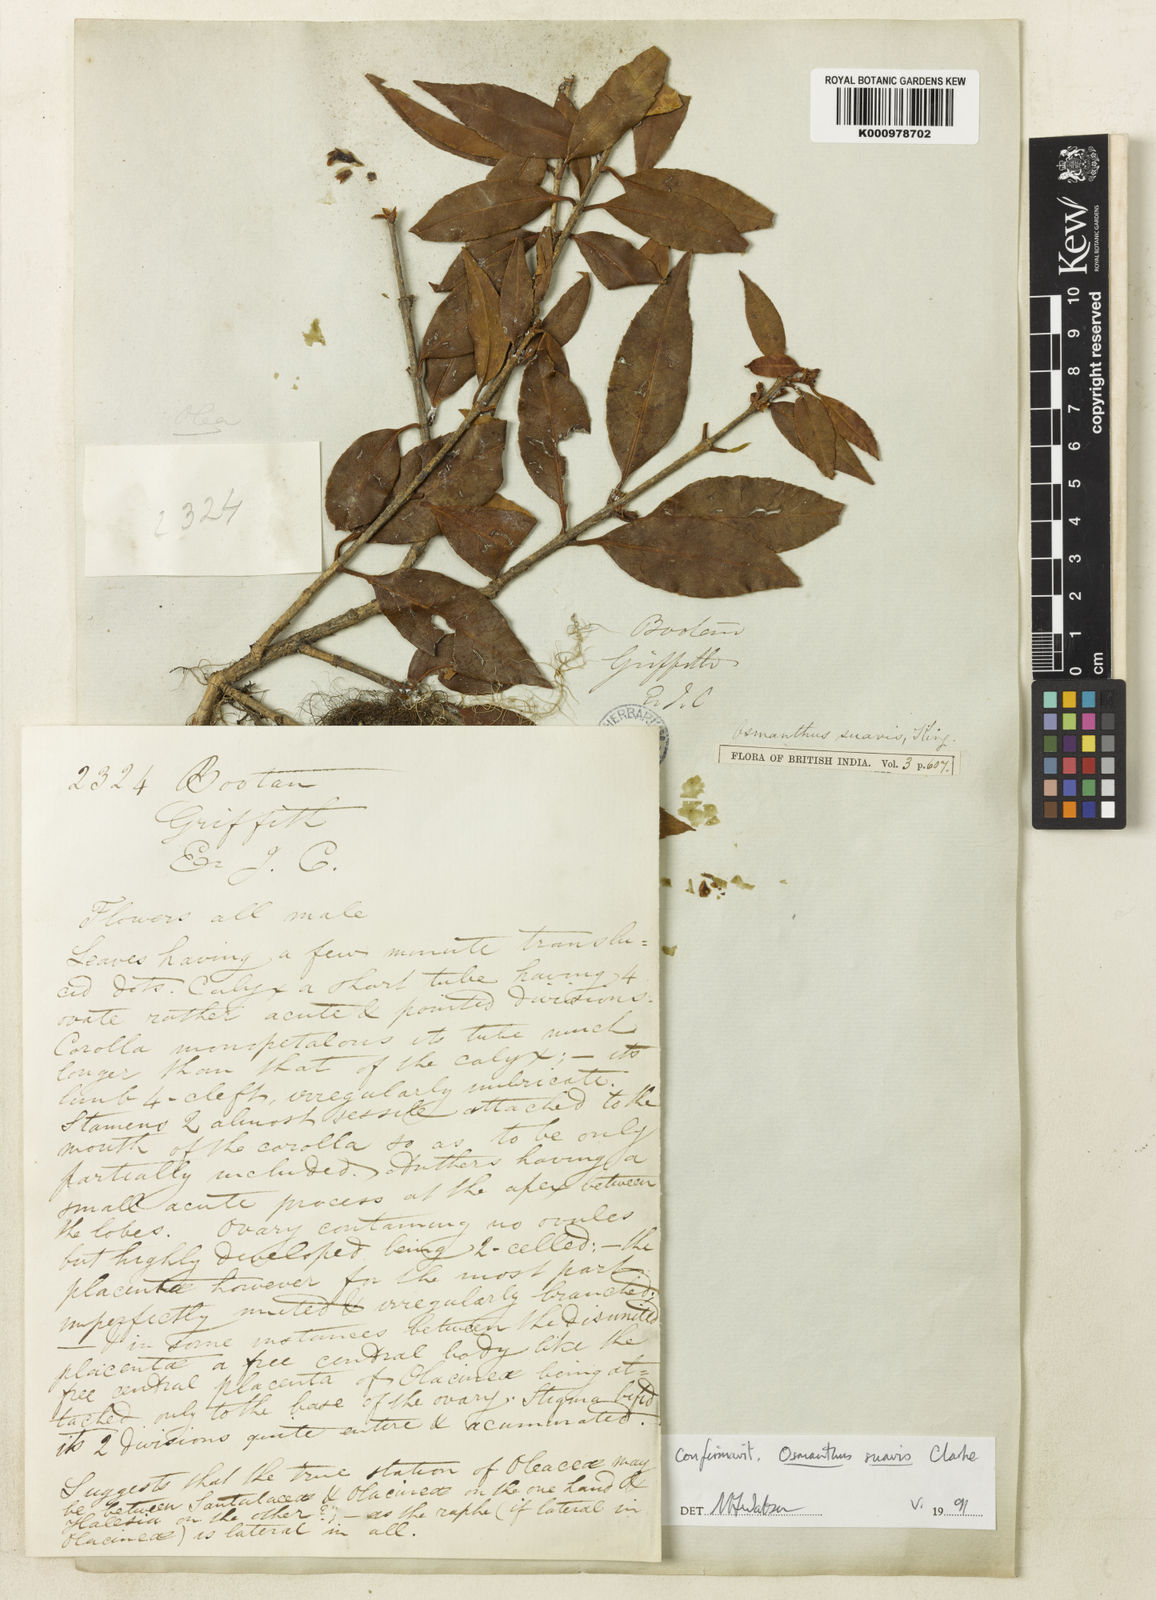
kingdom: Plantae
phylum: Tracheophyta
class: Magnoliopsida
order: Lamiales
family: Oleaceae
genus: Osmanthus
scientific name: Osmanthus suavis
